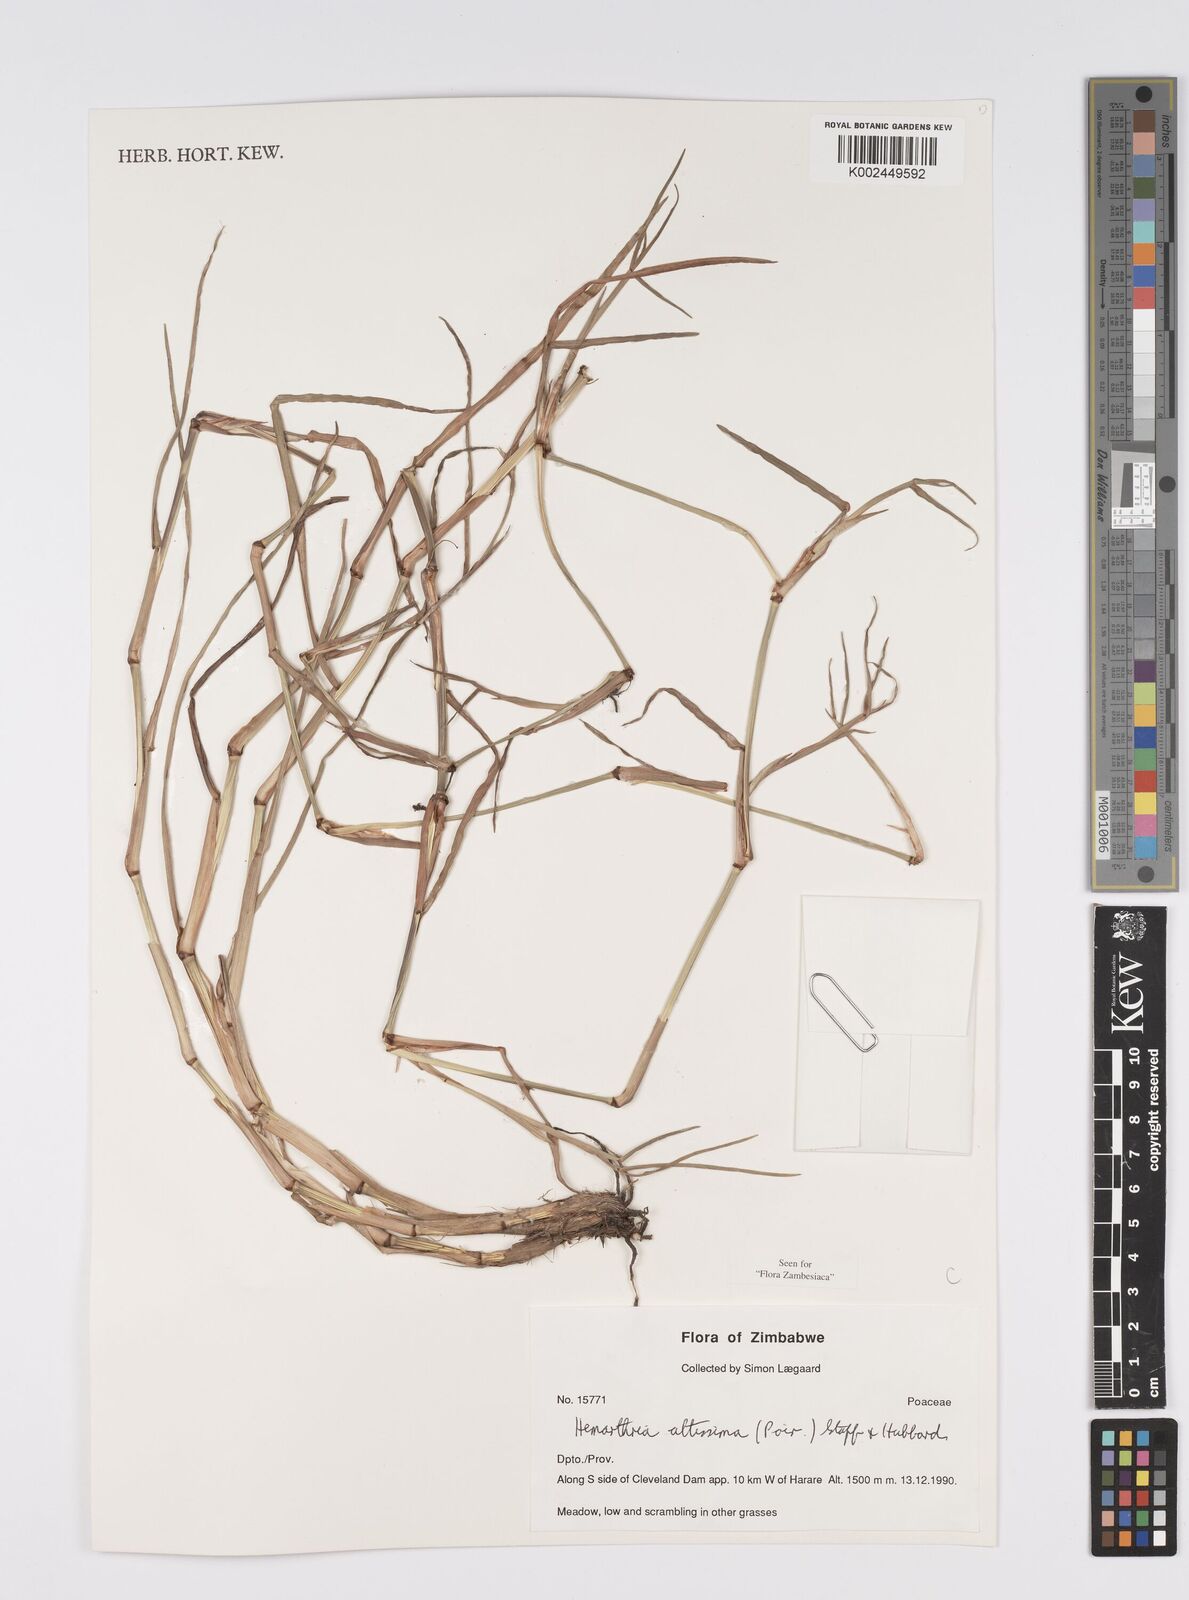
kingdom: Plantae
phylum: Tracheophyta
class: Liliopsida
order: Poales
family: Poaceae
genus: Hemarthria
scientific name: Hemarthria altissima
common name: African jointgrass
